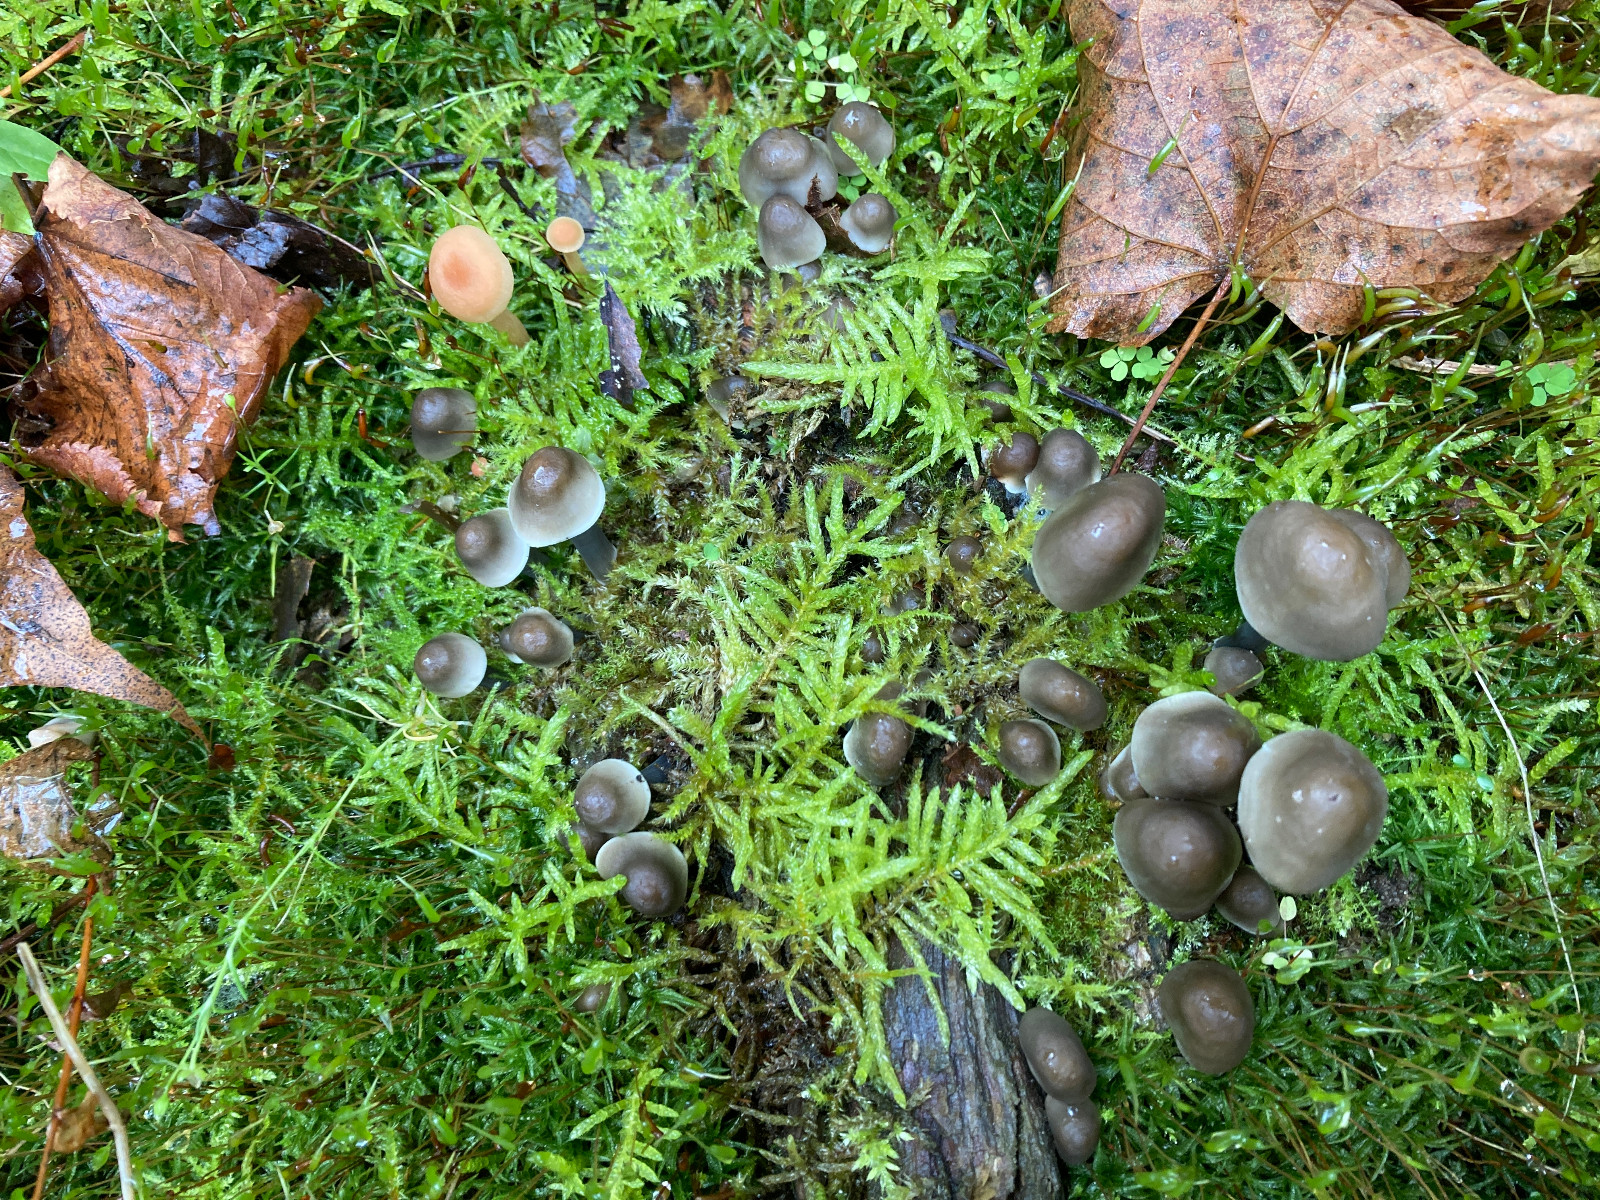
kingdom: Fungi
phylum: Basidiomycota
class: Agaricomycetes
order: Agaricales
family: Mycenaceae
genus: Mycena
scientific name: Mycena polygramma
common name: mangestribet huesvamp
